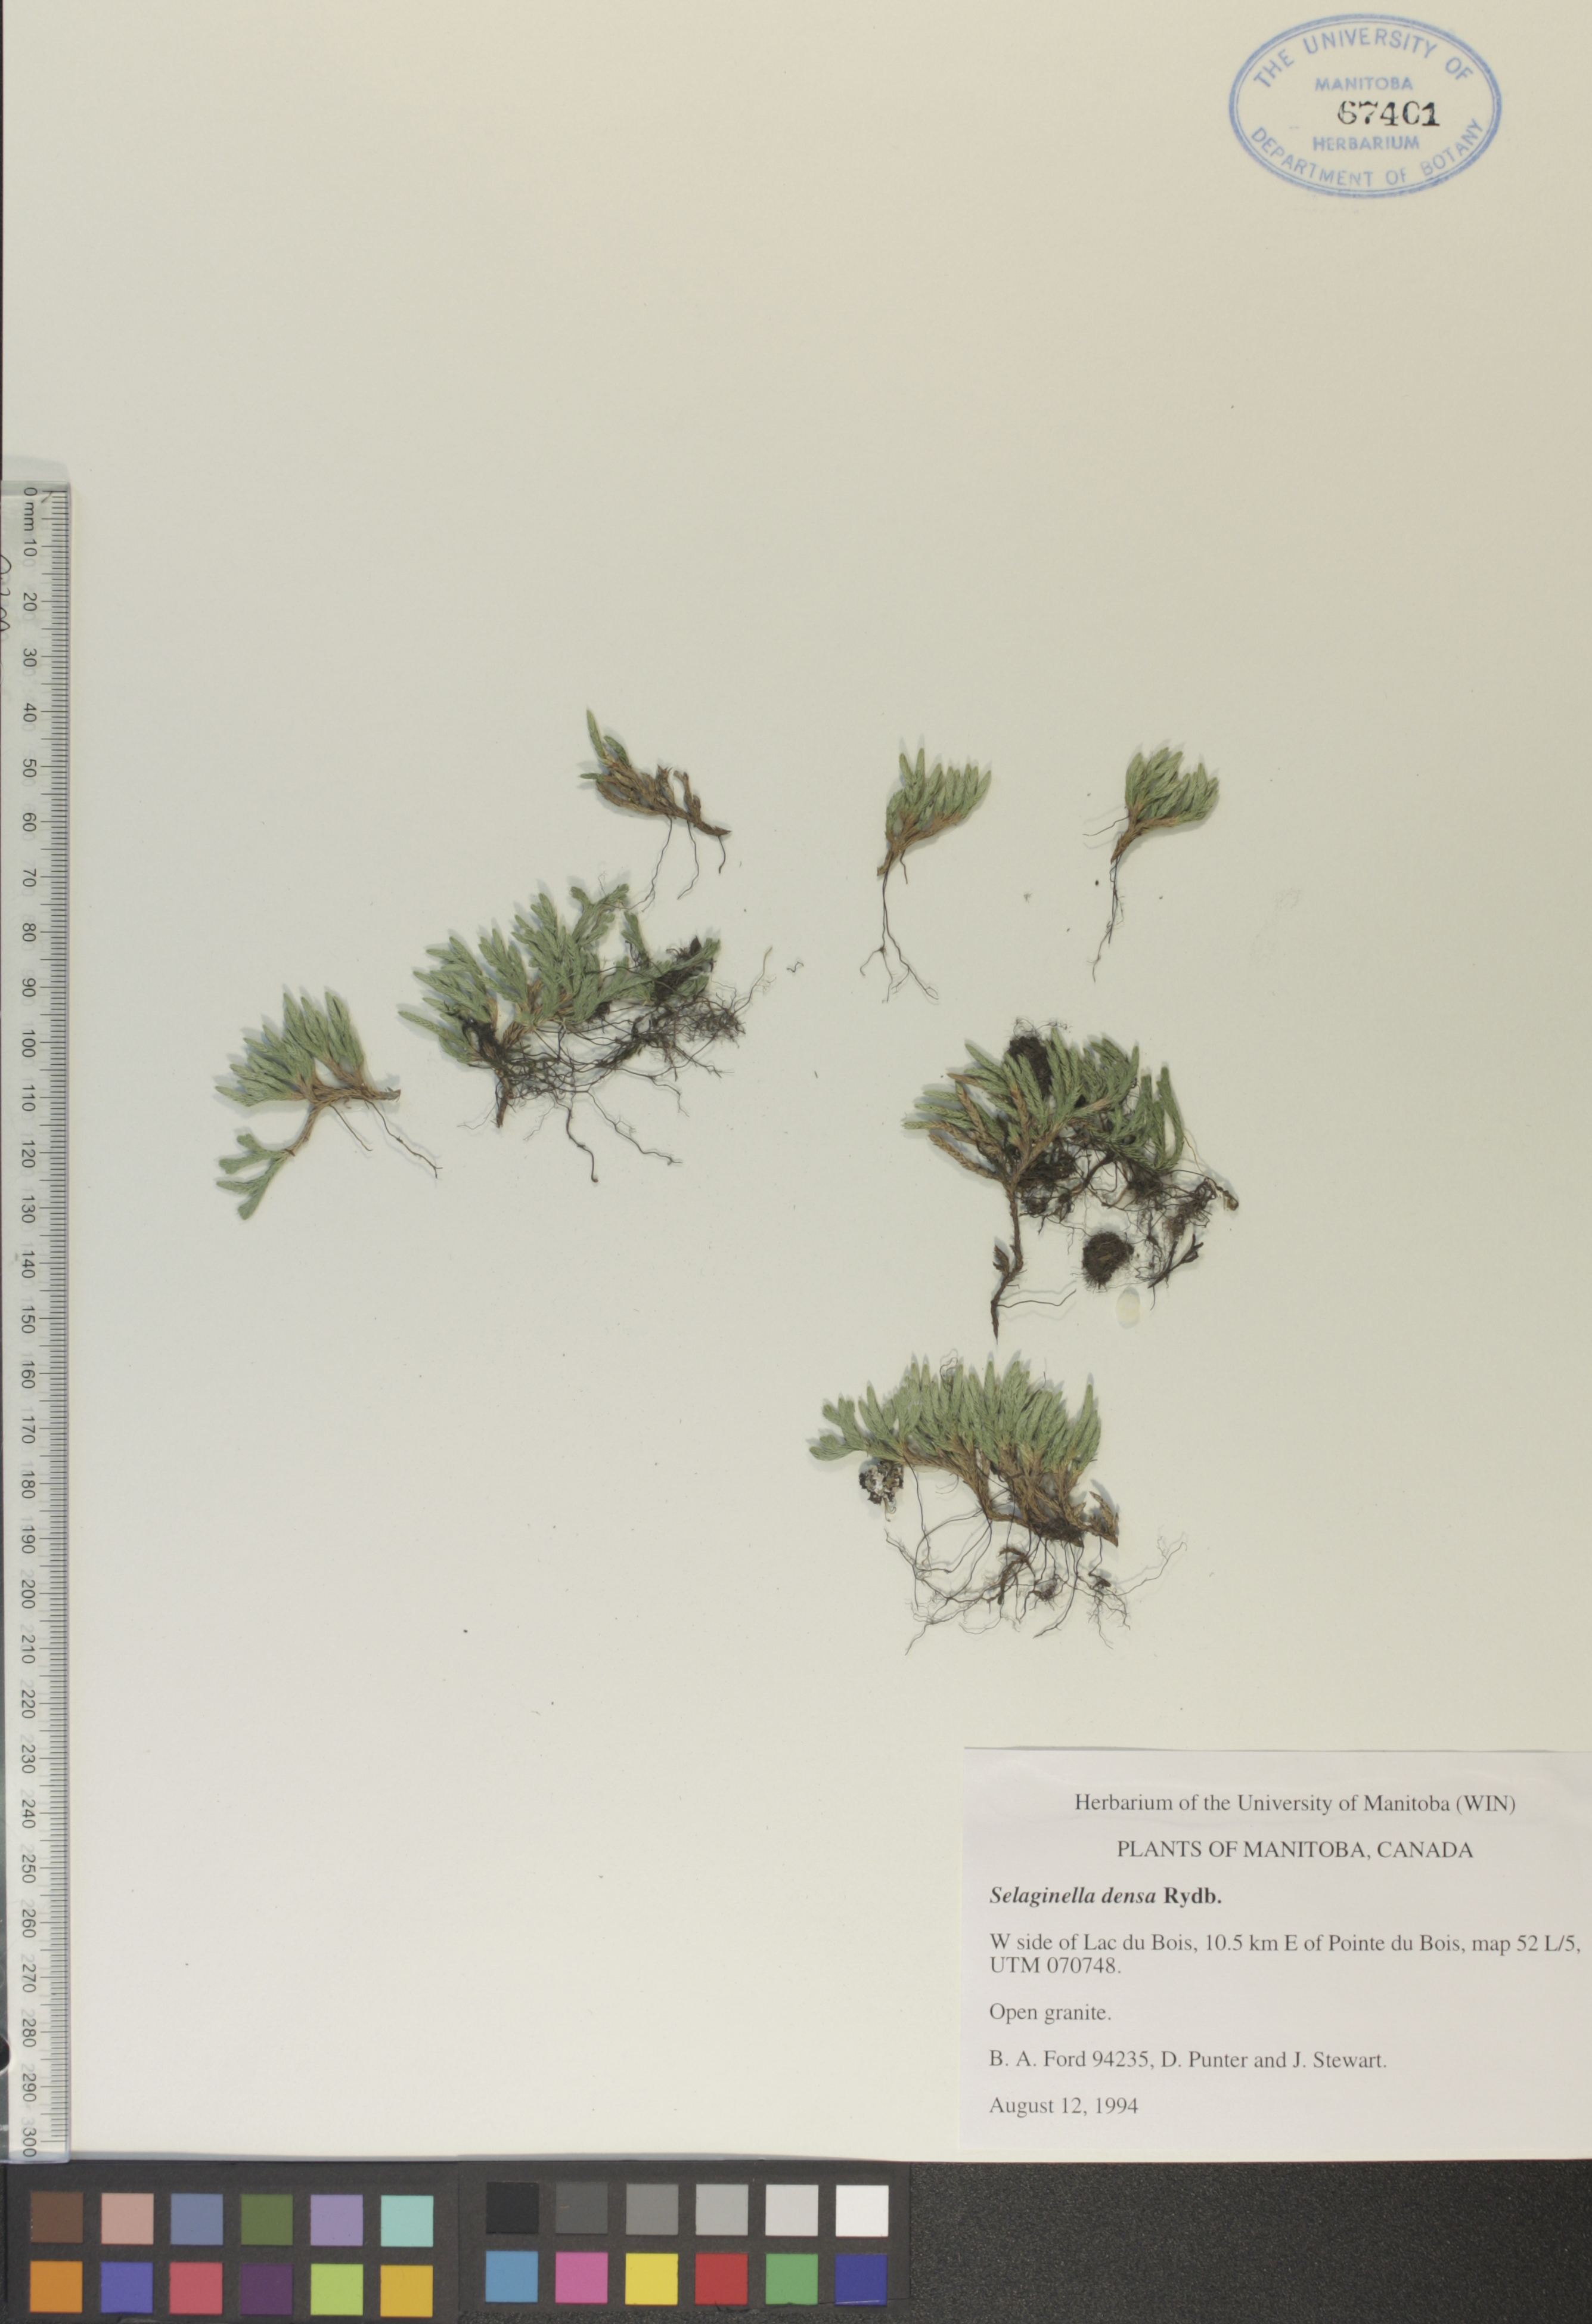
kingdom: Plantae
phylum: Tracheophyta
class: Lycopodiopsida
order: Selaginellales
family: Selaginellaceae
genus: Selaginella
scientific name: Selaginella densa
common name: Mountain spike-moss
